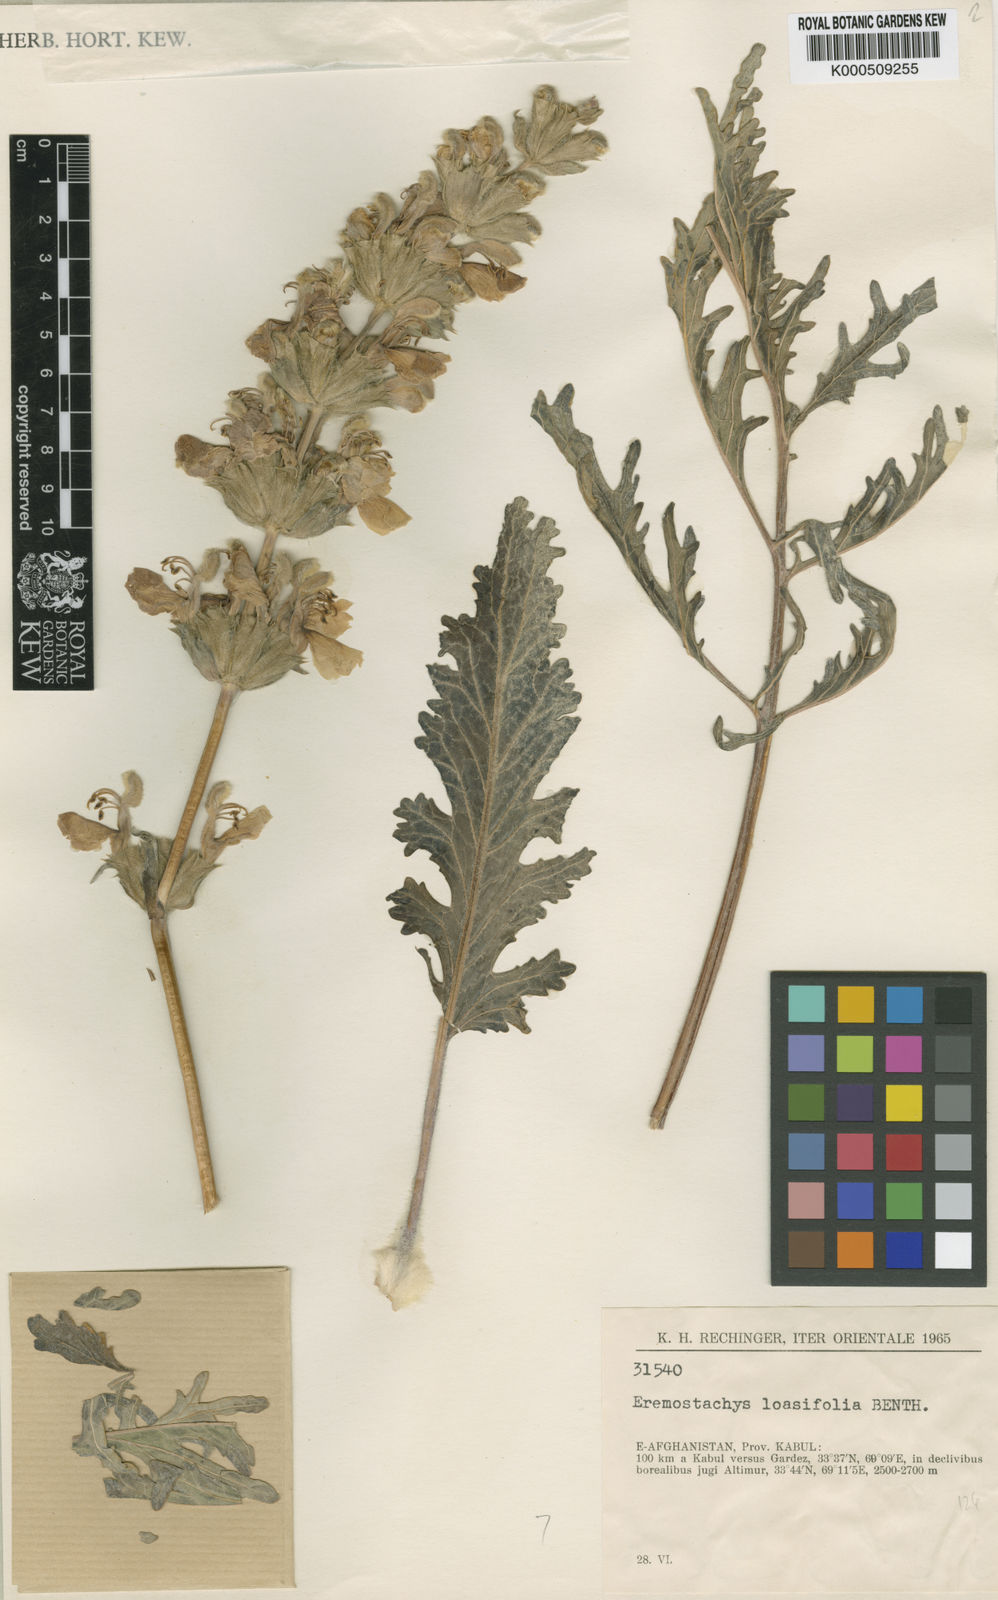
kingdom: Plantae
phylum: Tracheophyta
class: Magnoliopsida
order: Lamiales
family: Lamiaceae
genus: Phlomoides
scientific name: Phlomoides loasifolia
